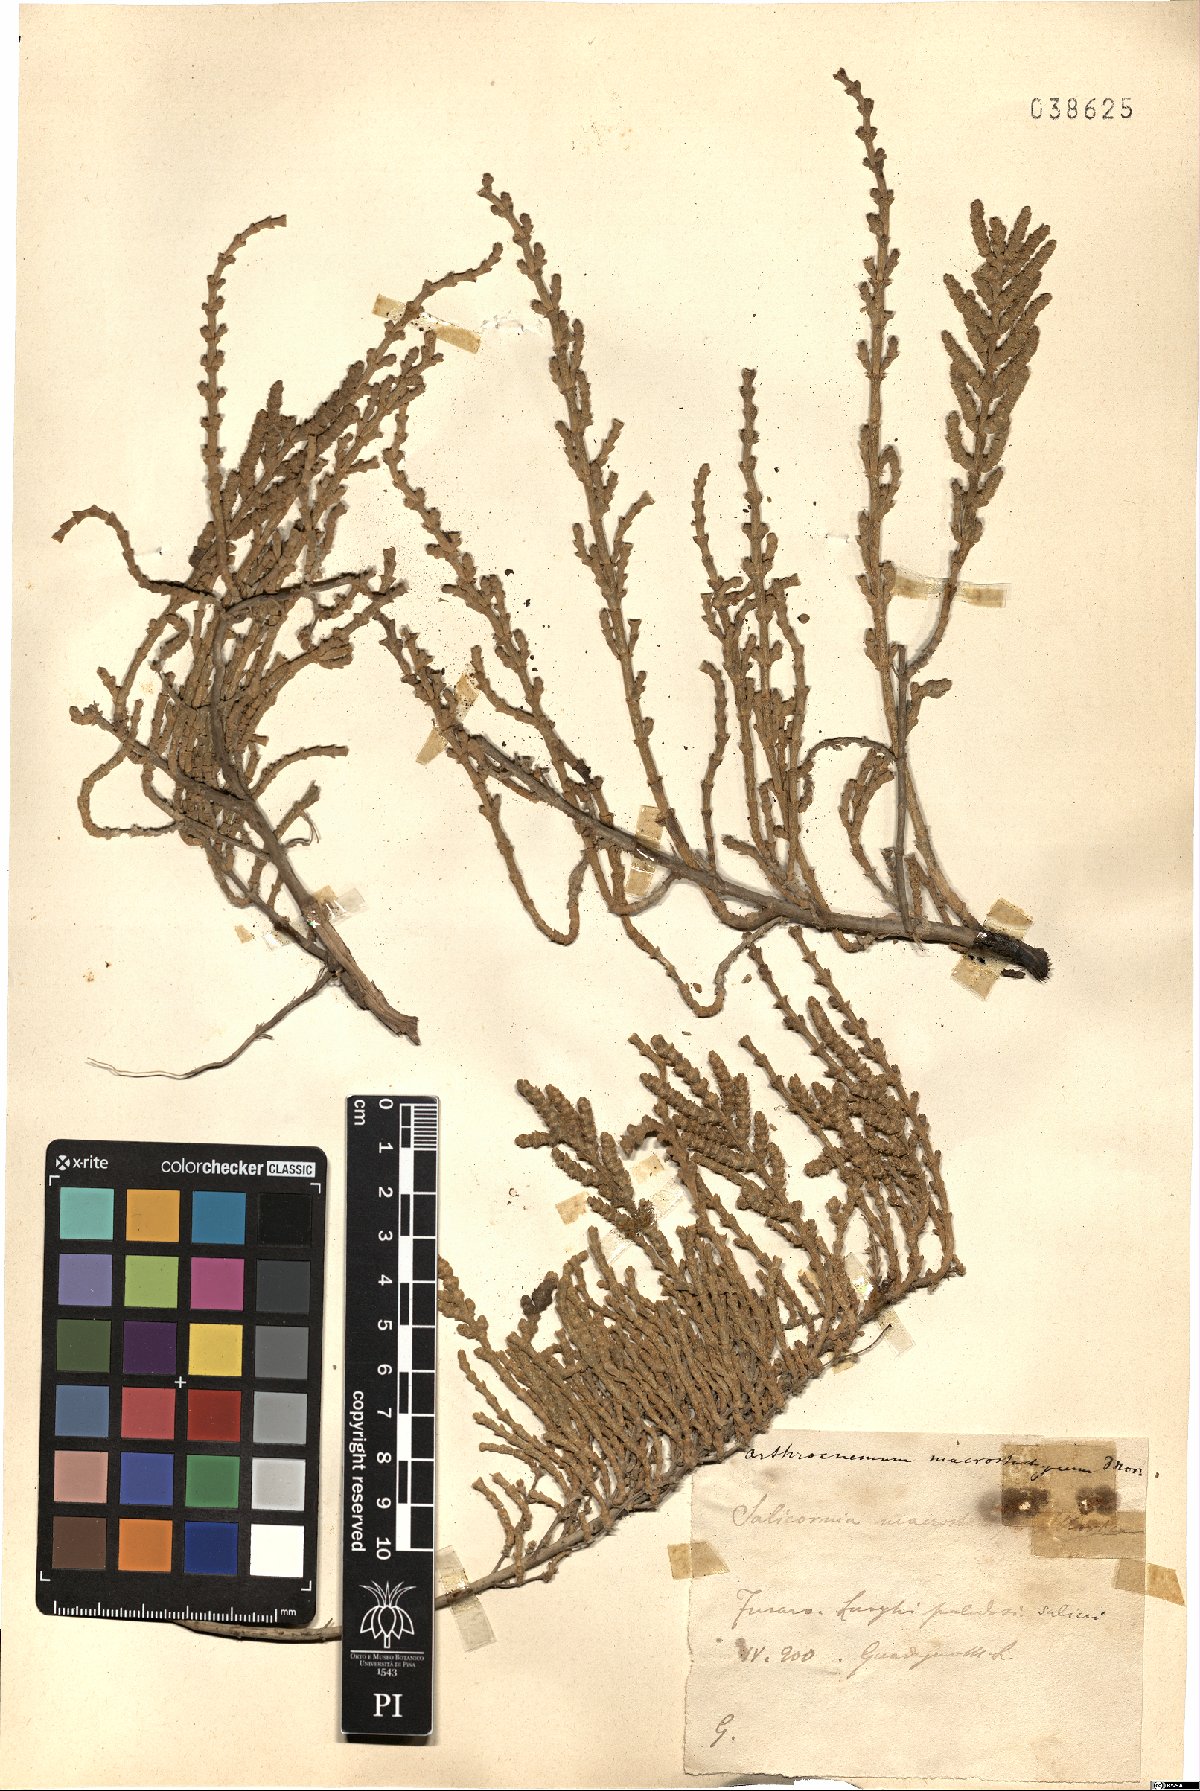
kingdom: Plantae
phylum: Tracheophyta
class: Magnoliopsida
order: Caryophyllales
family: Amaranthaceae
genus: Arthrocaulon
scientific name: Arthrocaulon macrostachyum
